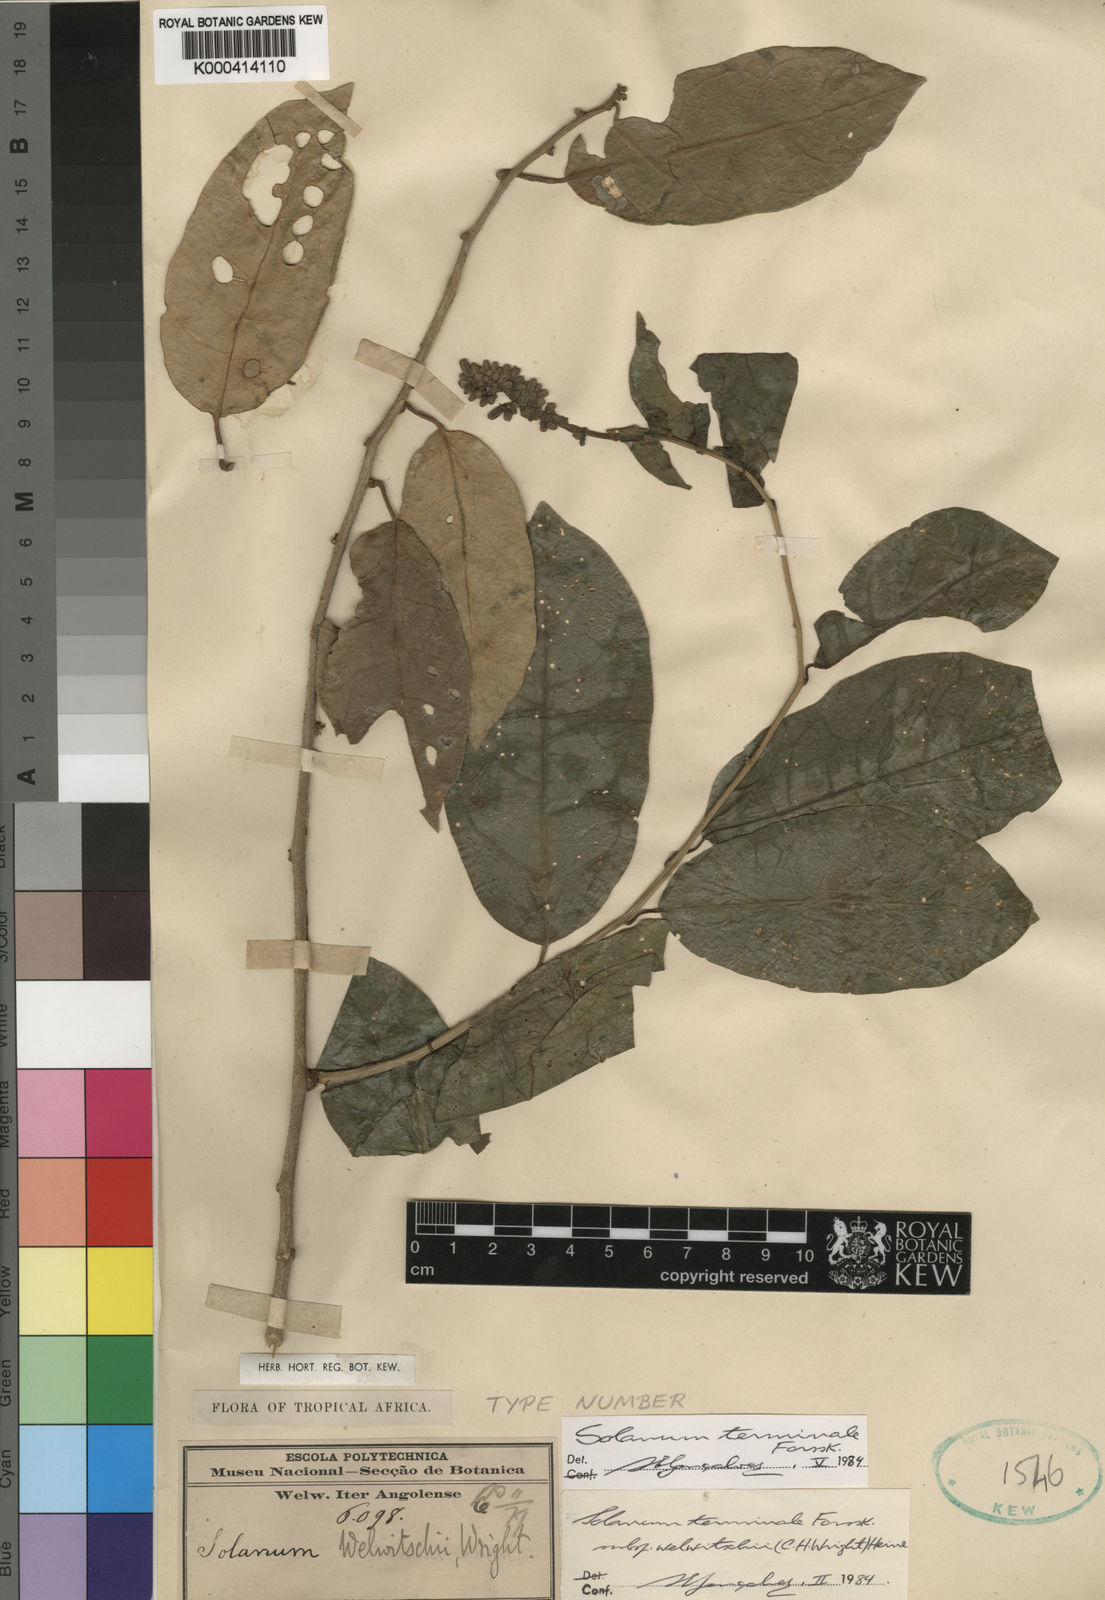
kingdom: Plantae
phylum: Tracheophyta
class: Magnoliopsida
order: Solanales
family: Solanaceae
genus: Solanum
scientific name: Solanum terminale
